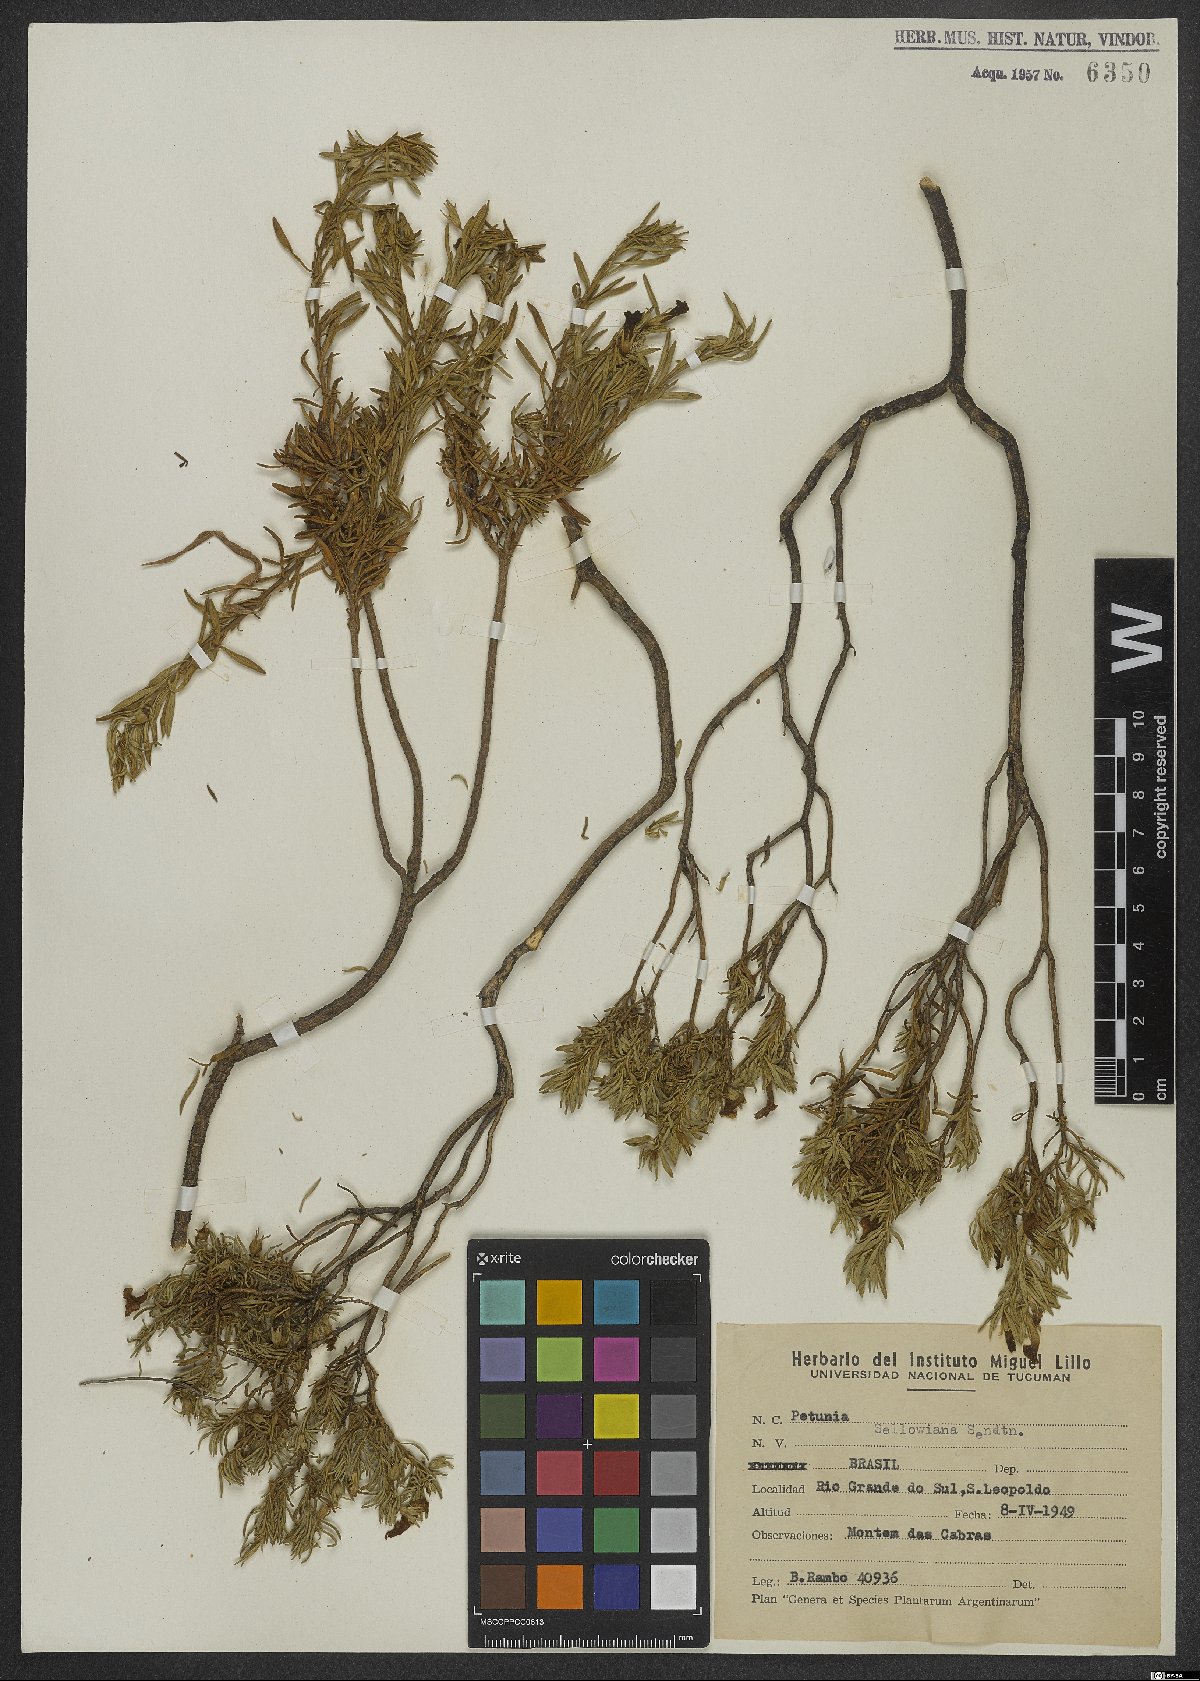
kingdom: Plantae
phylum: Tracheophyta
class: Magnoliopsida
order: Solanales
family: Solanaceae
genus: Calibrachoa
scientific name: Calibrachoa sellowiana
